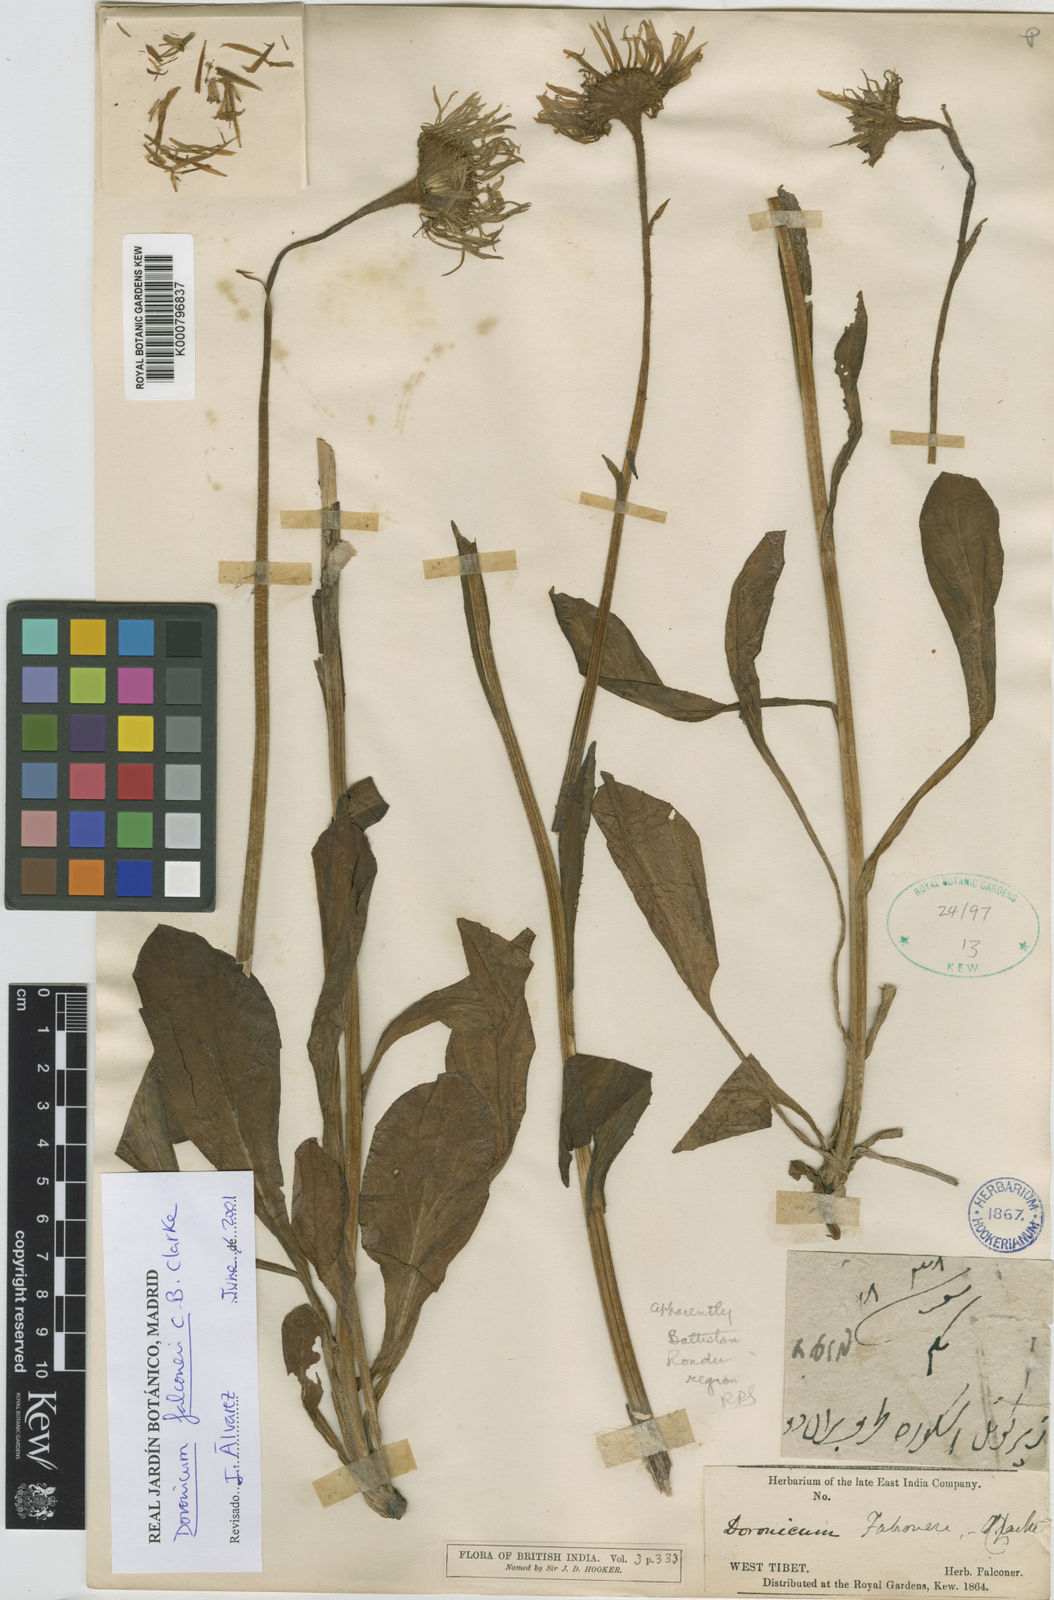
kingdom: Plantae
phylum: Tracheophyta
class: Magnoliopsida
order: Asterales
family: Asteraceae
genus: Doronicum
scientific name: Doronicum falconeri
